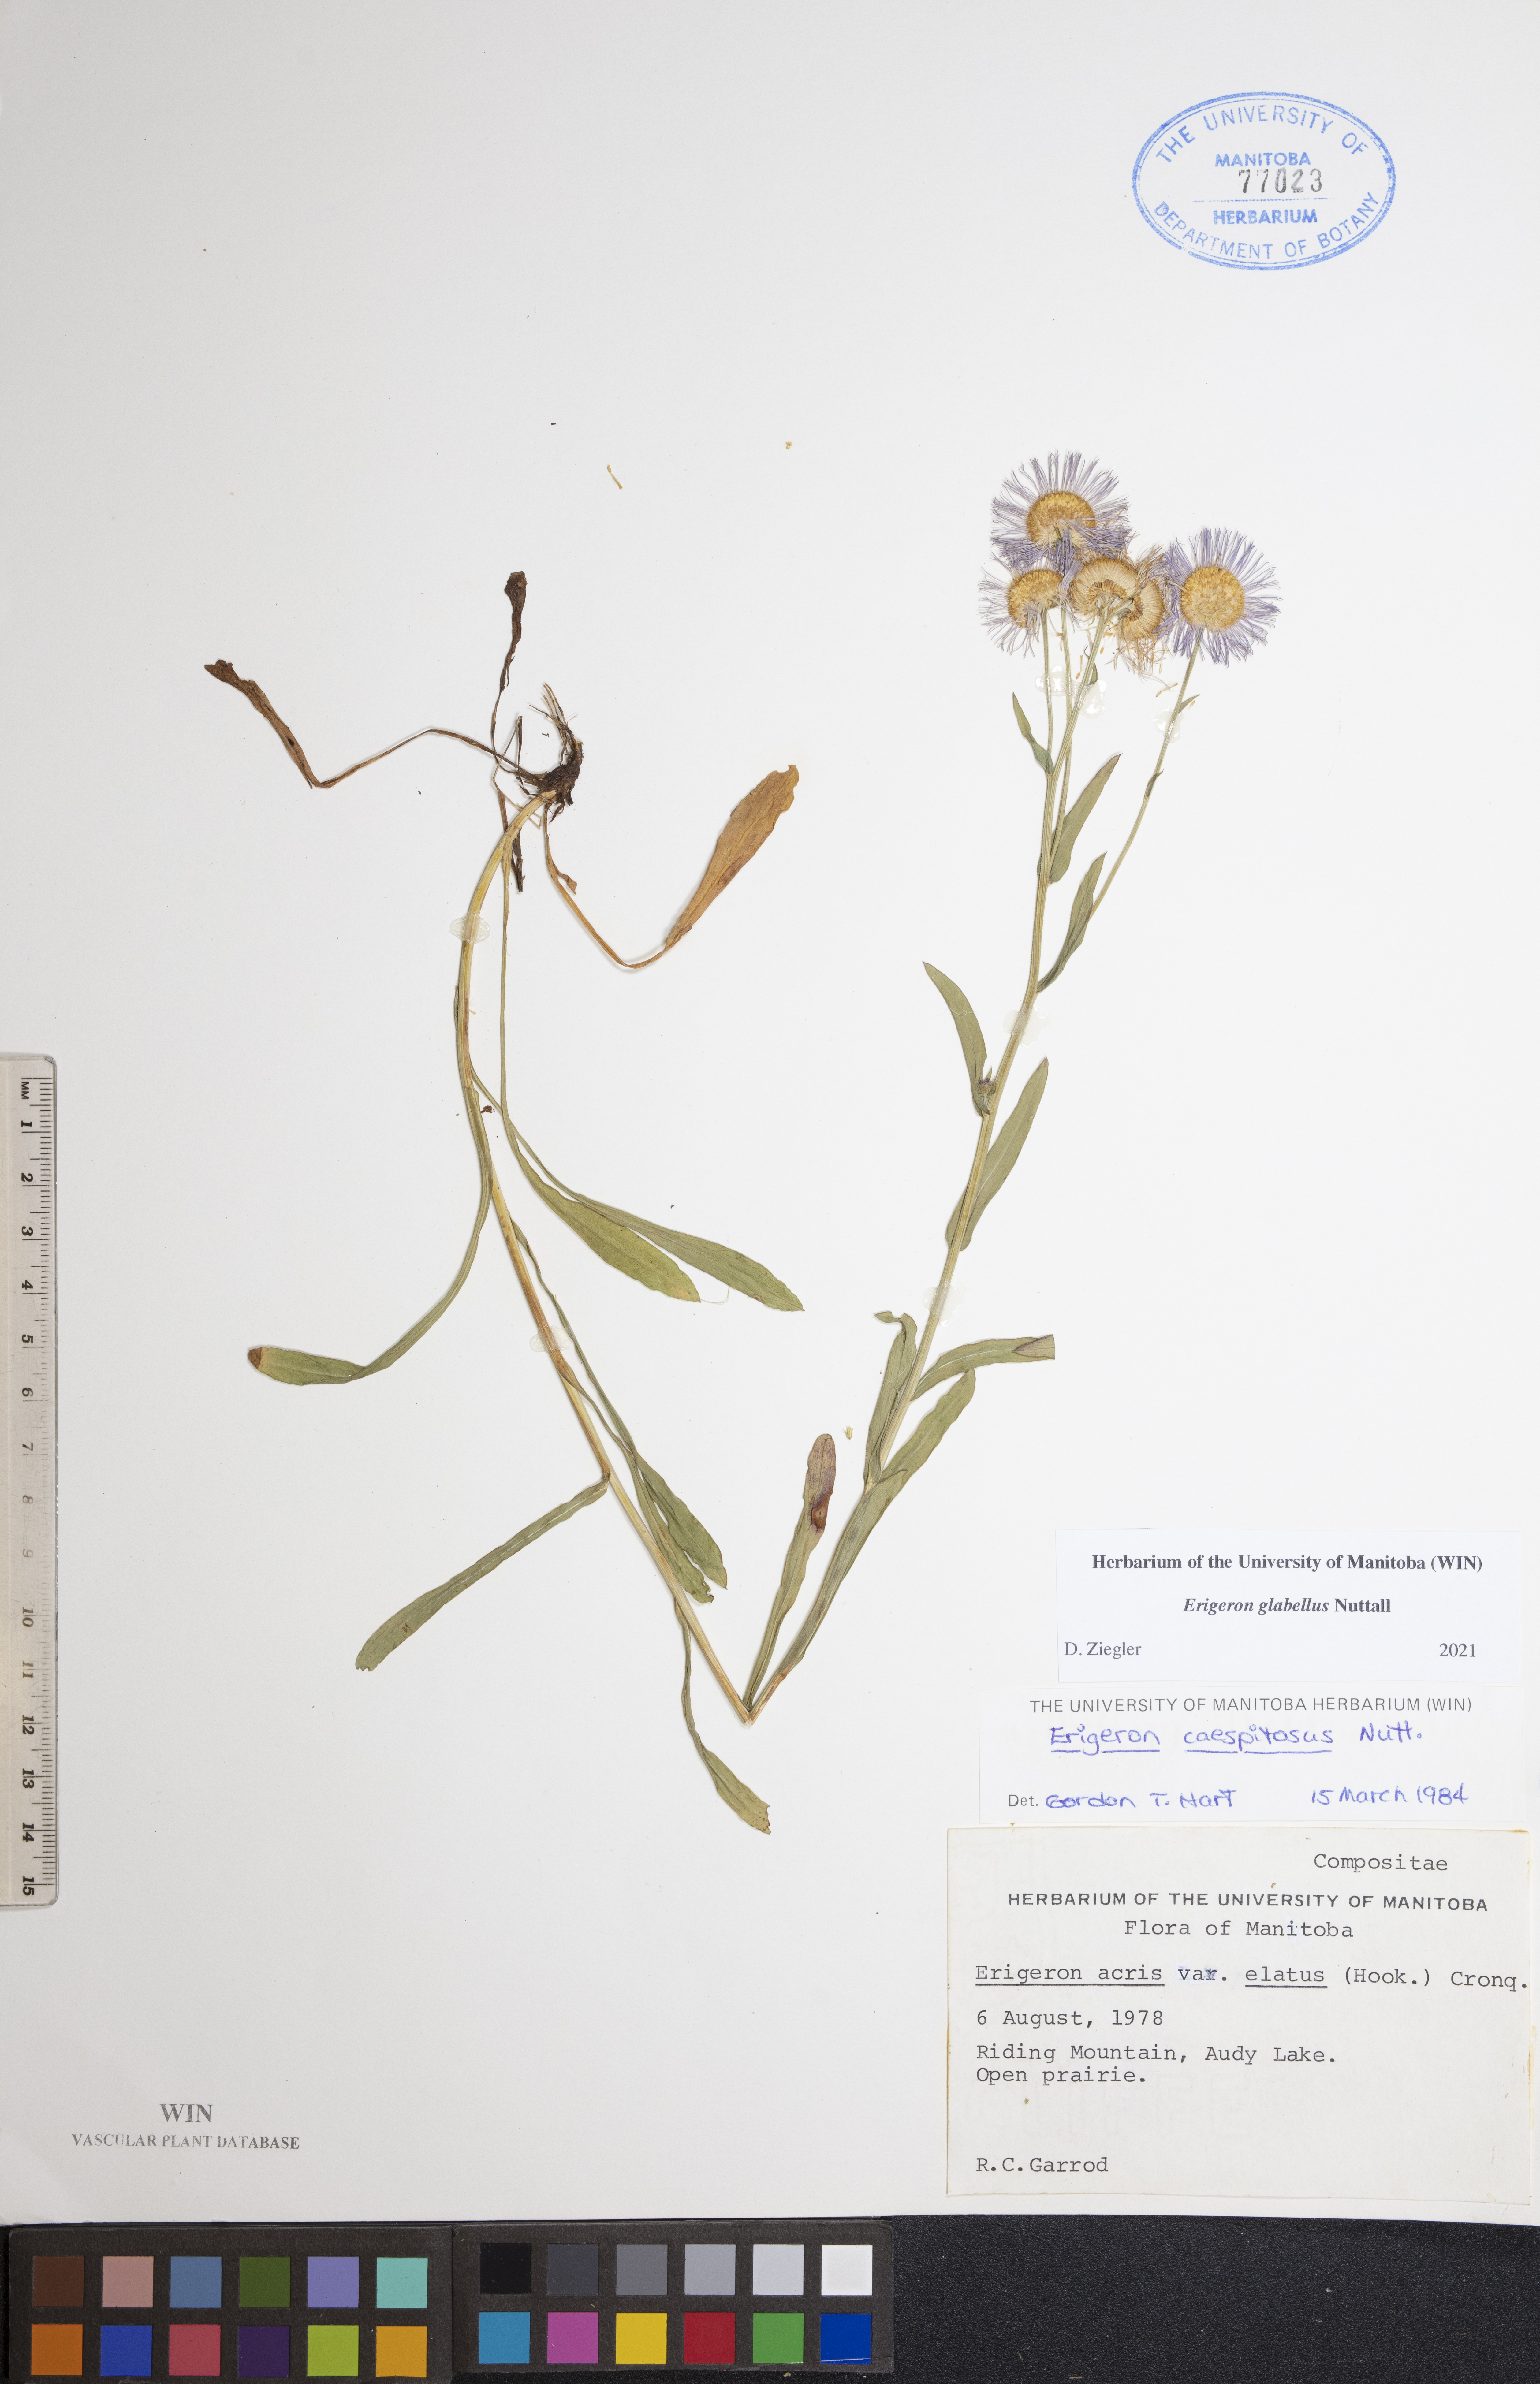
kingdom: Plantae
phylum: Tracheophyta
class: Magnoliopsida
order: Asterales
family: Asteraceae
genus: Erigeron
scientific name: Erigeron glabellus
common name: Smooth fleabane
